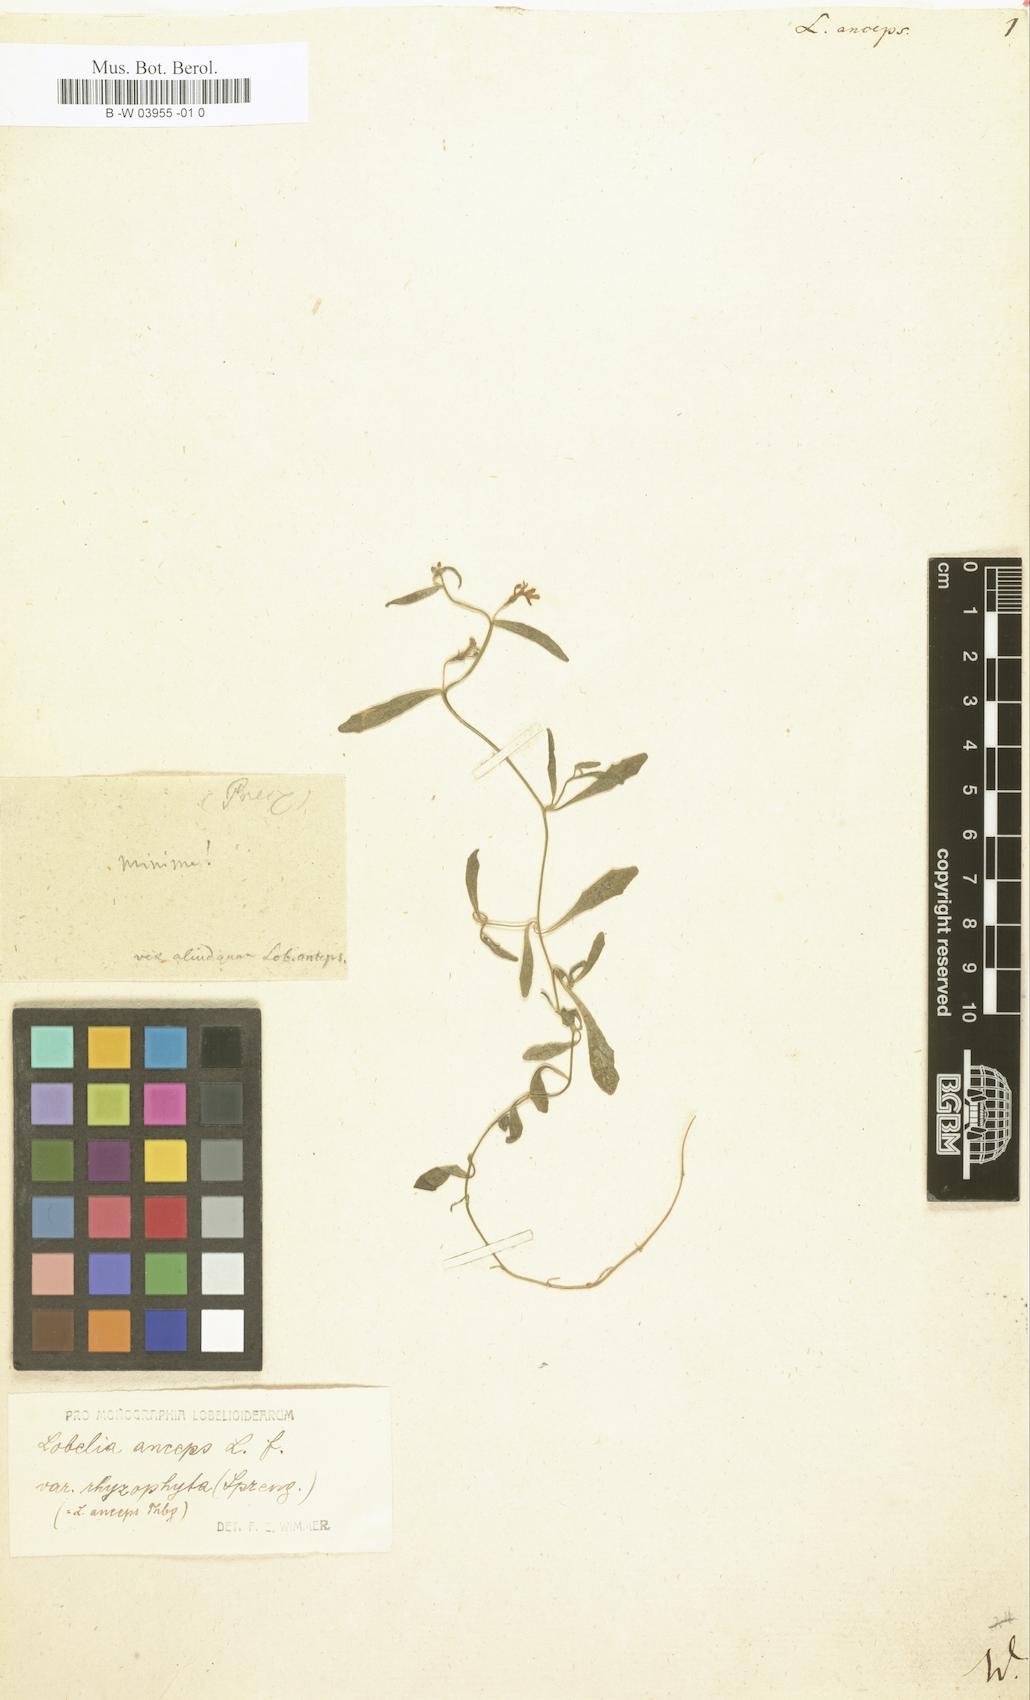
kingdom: Plantae
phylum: Tracheophyta
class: Magnoliopsida
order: Asterales
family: Campanulaceae
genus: Lobelia
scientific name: Lobelia anceps
